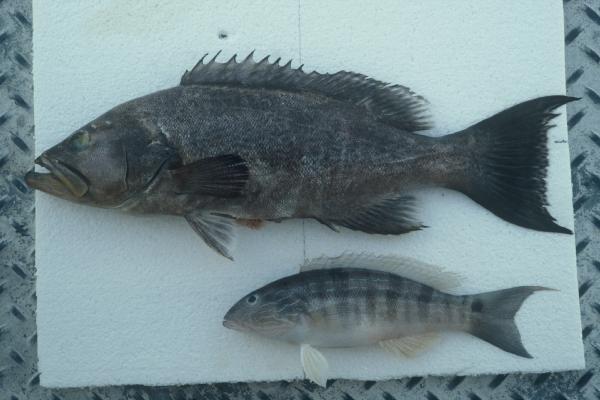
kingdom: Animalia
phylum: Chordata
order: Perciformes
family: Serranidae
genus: Mycteroperca
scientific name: Mycteroperca phenax
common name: Scamp
